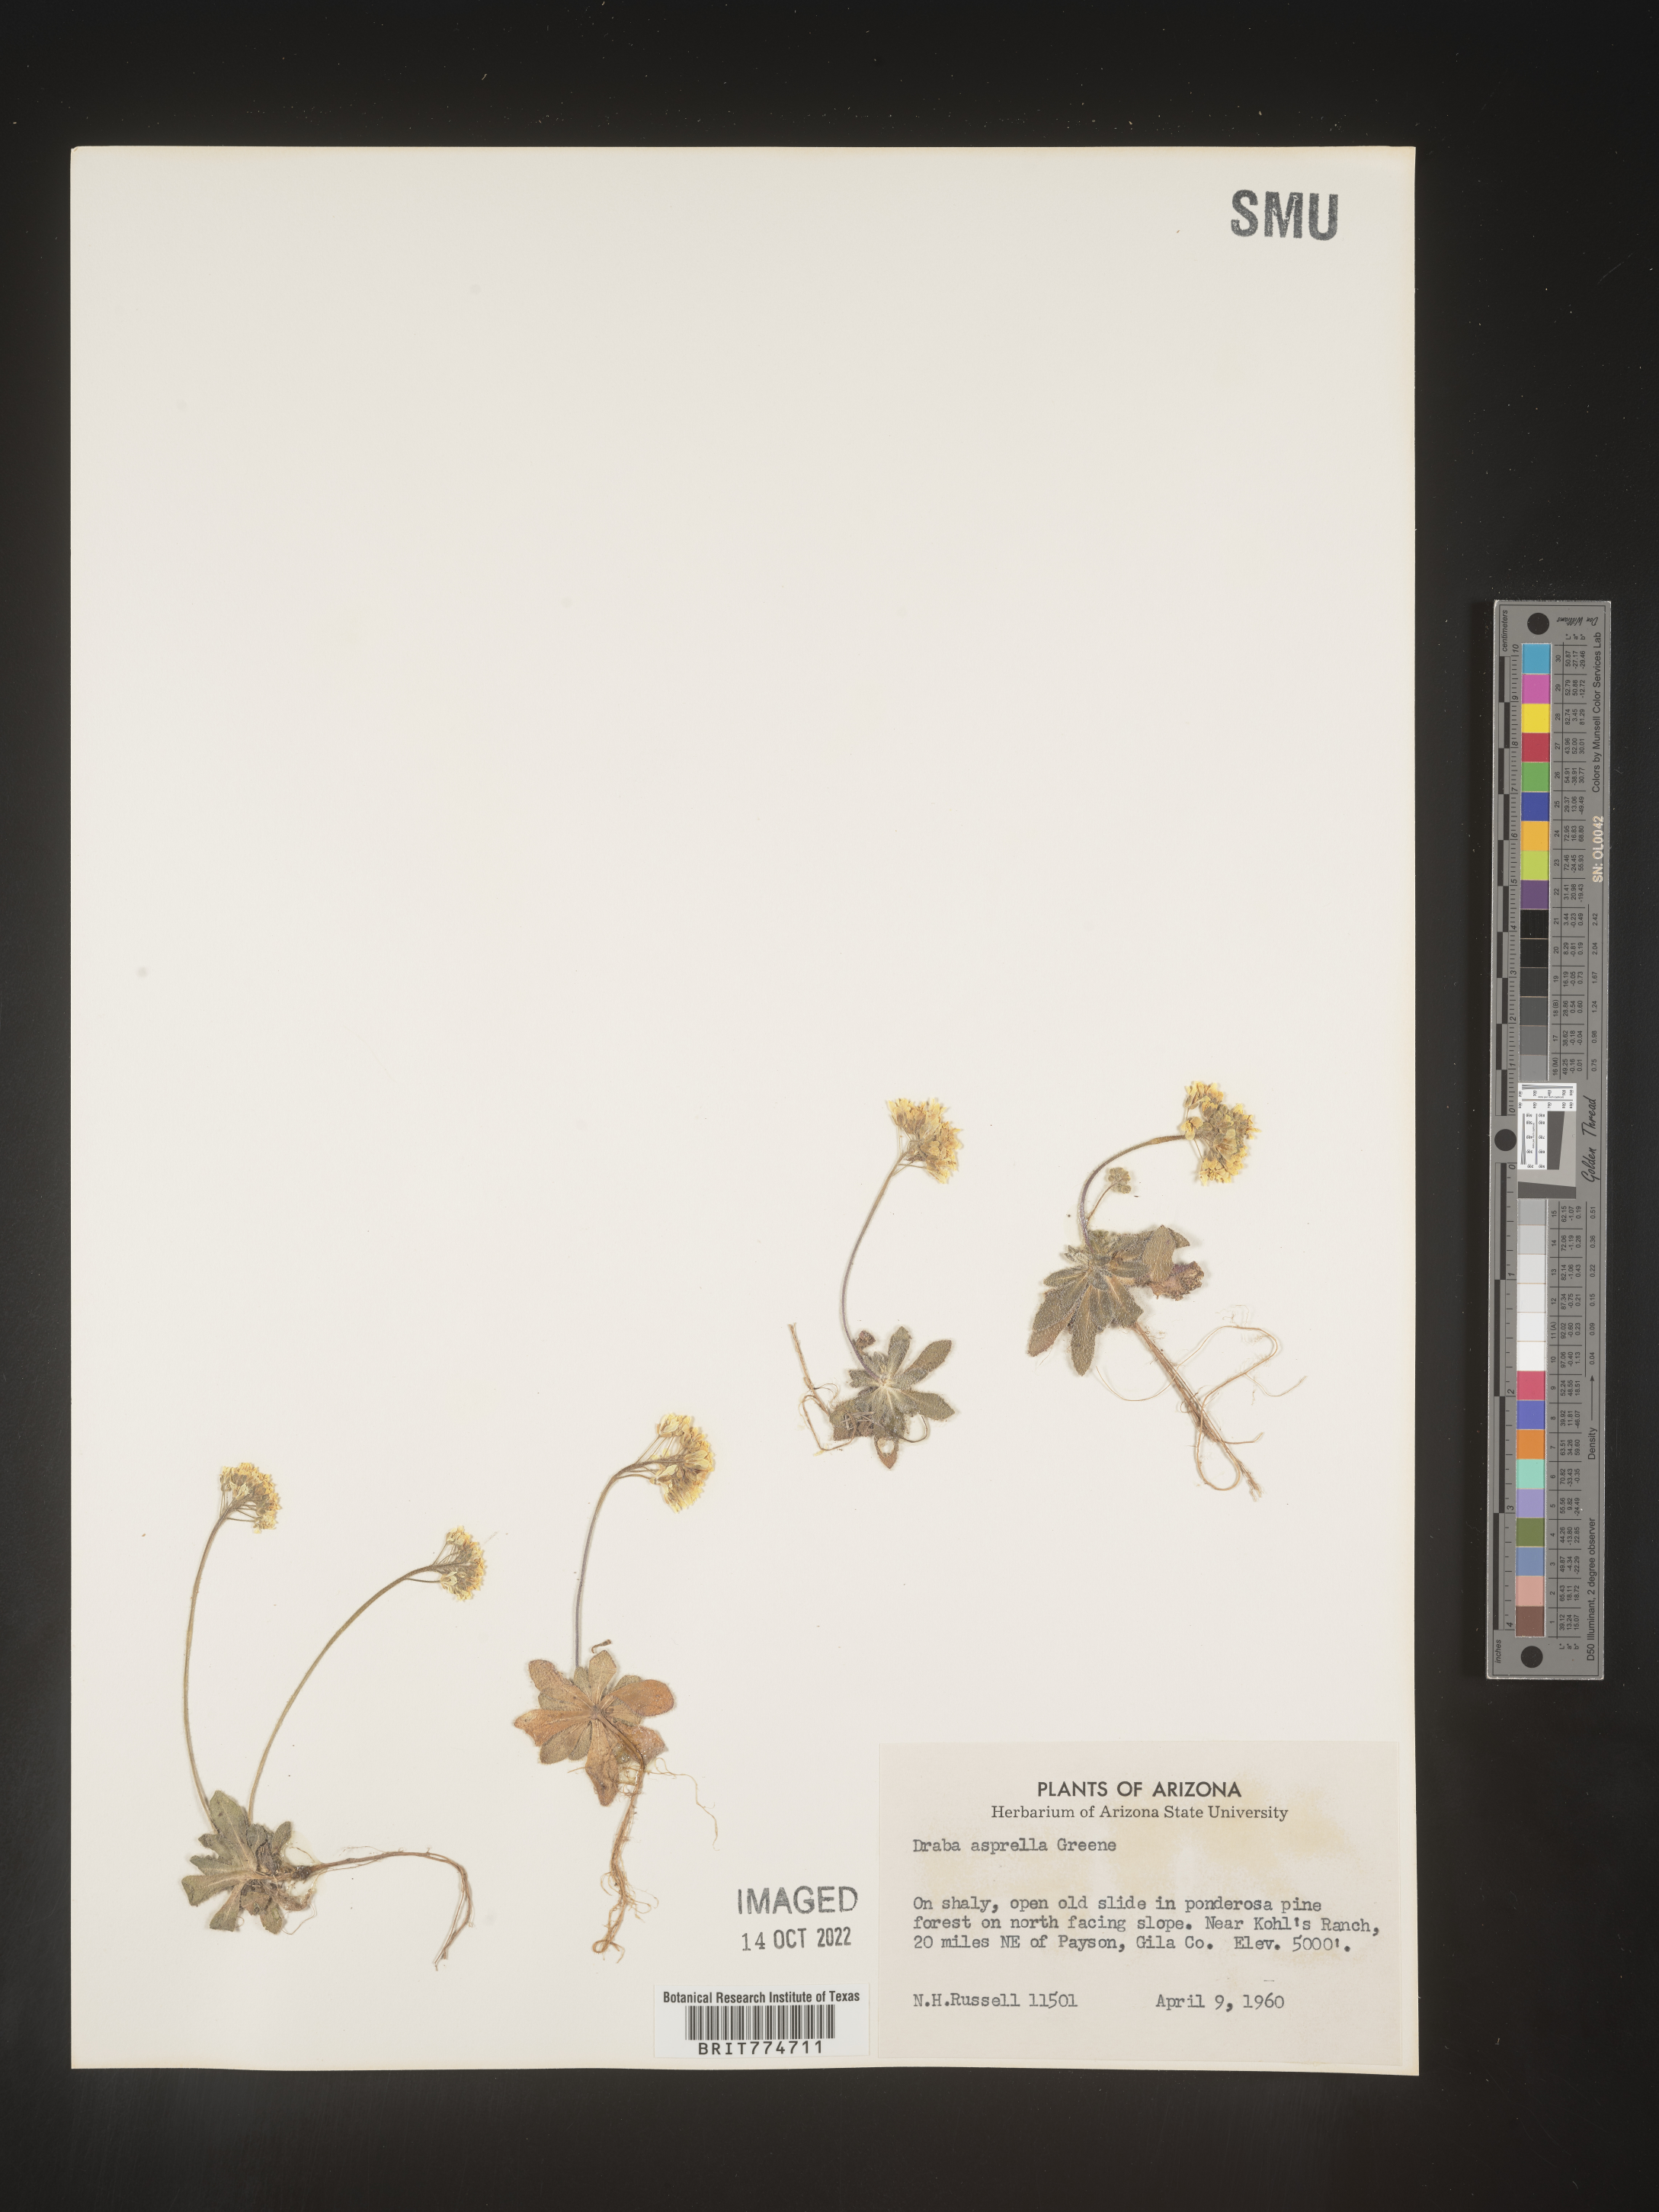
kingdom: Plantae
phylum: Tracheophyta
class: Magnoliopsida
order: Brassicales
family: Brassicaceae
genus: Draba
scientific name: Draba
